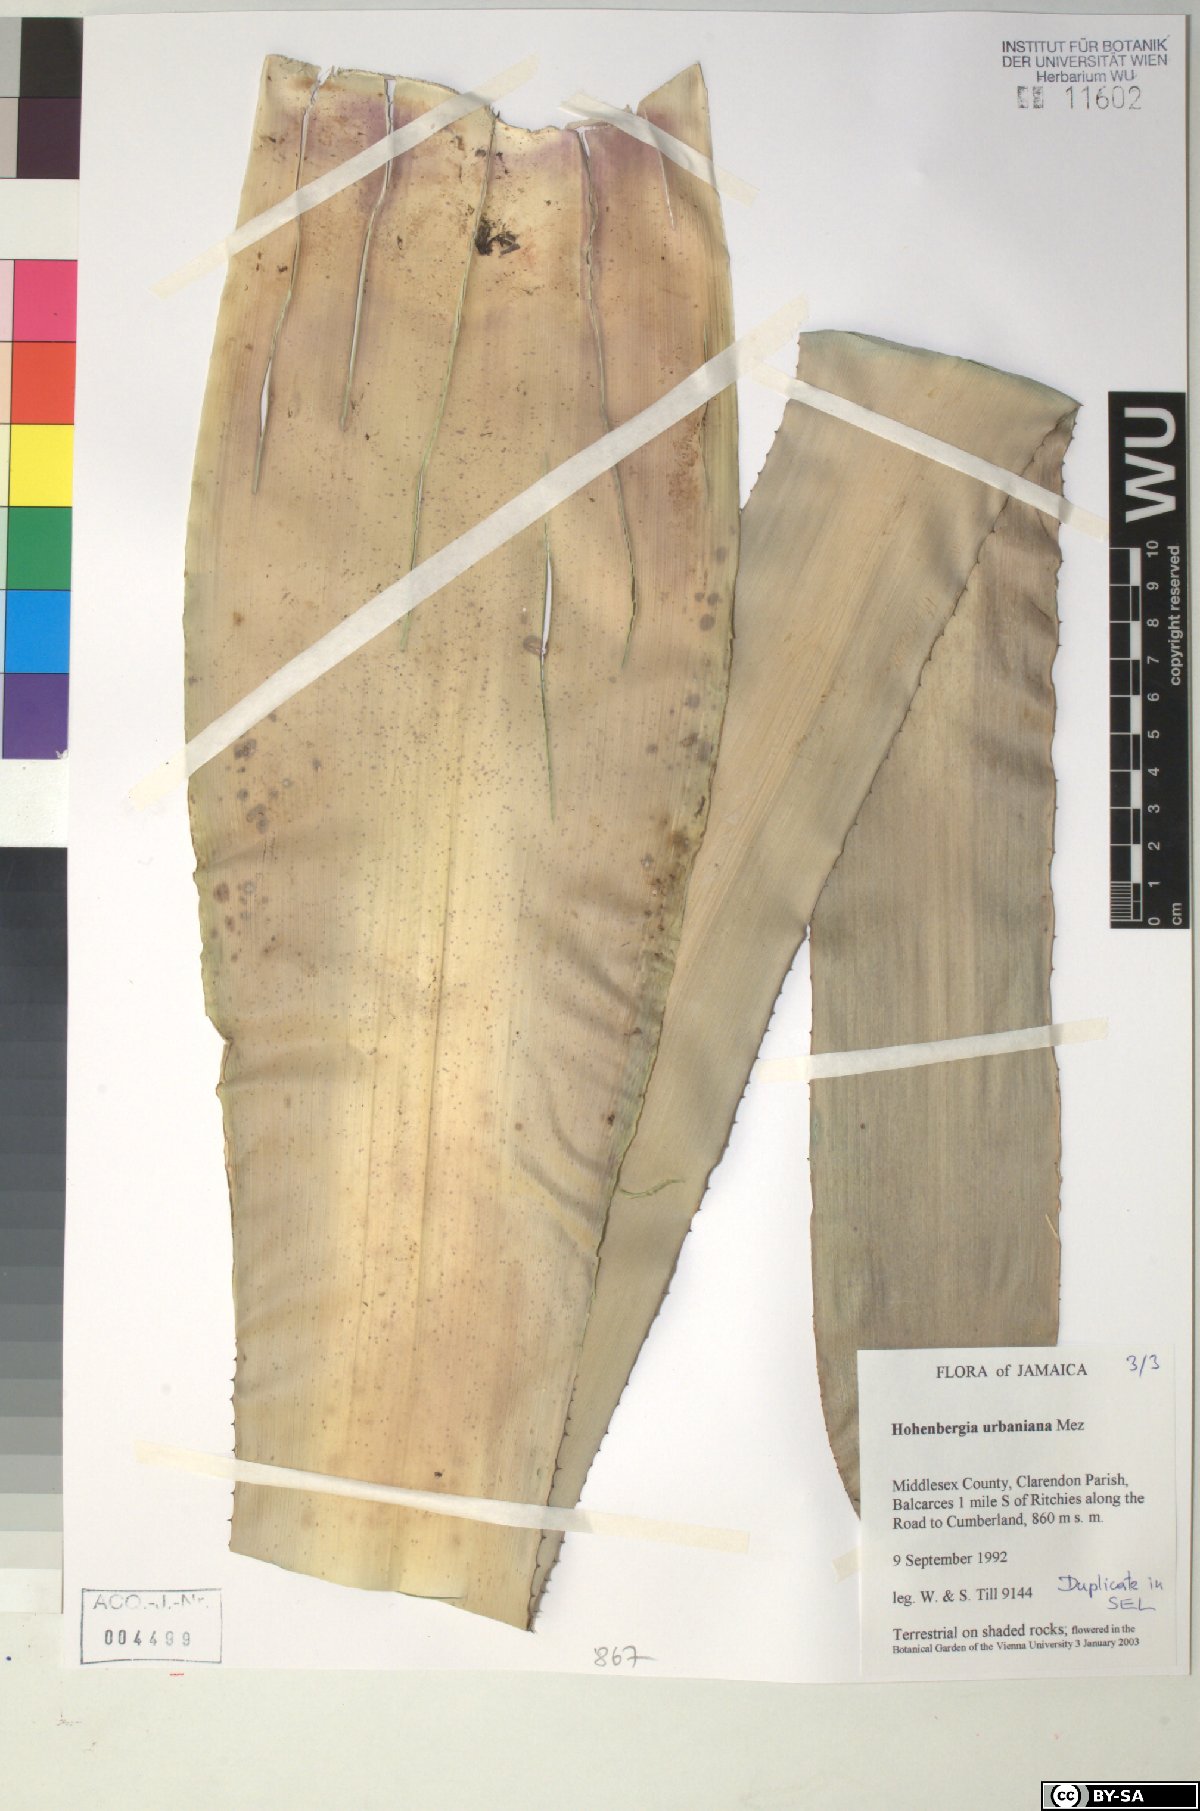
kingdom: Plantae
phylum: Tracheophyta
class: Liliopsida
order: Poales
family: Bromeliaceae
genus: Wittmackia
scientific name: Wittmackia urbaniana
